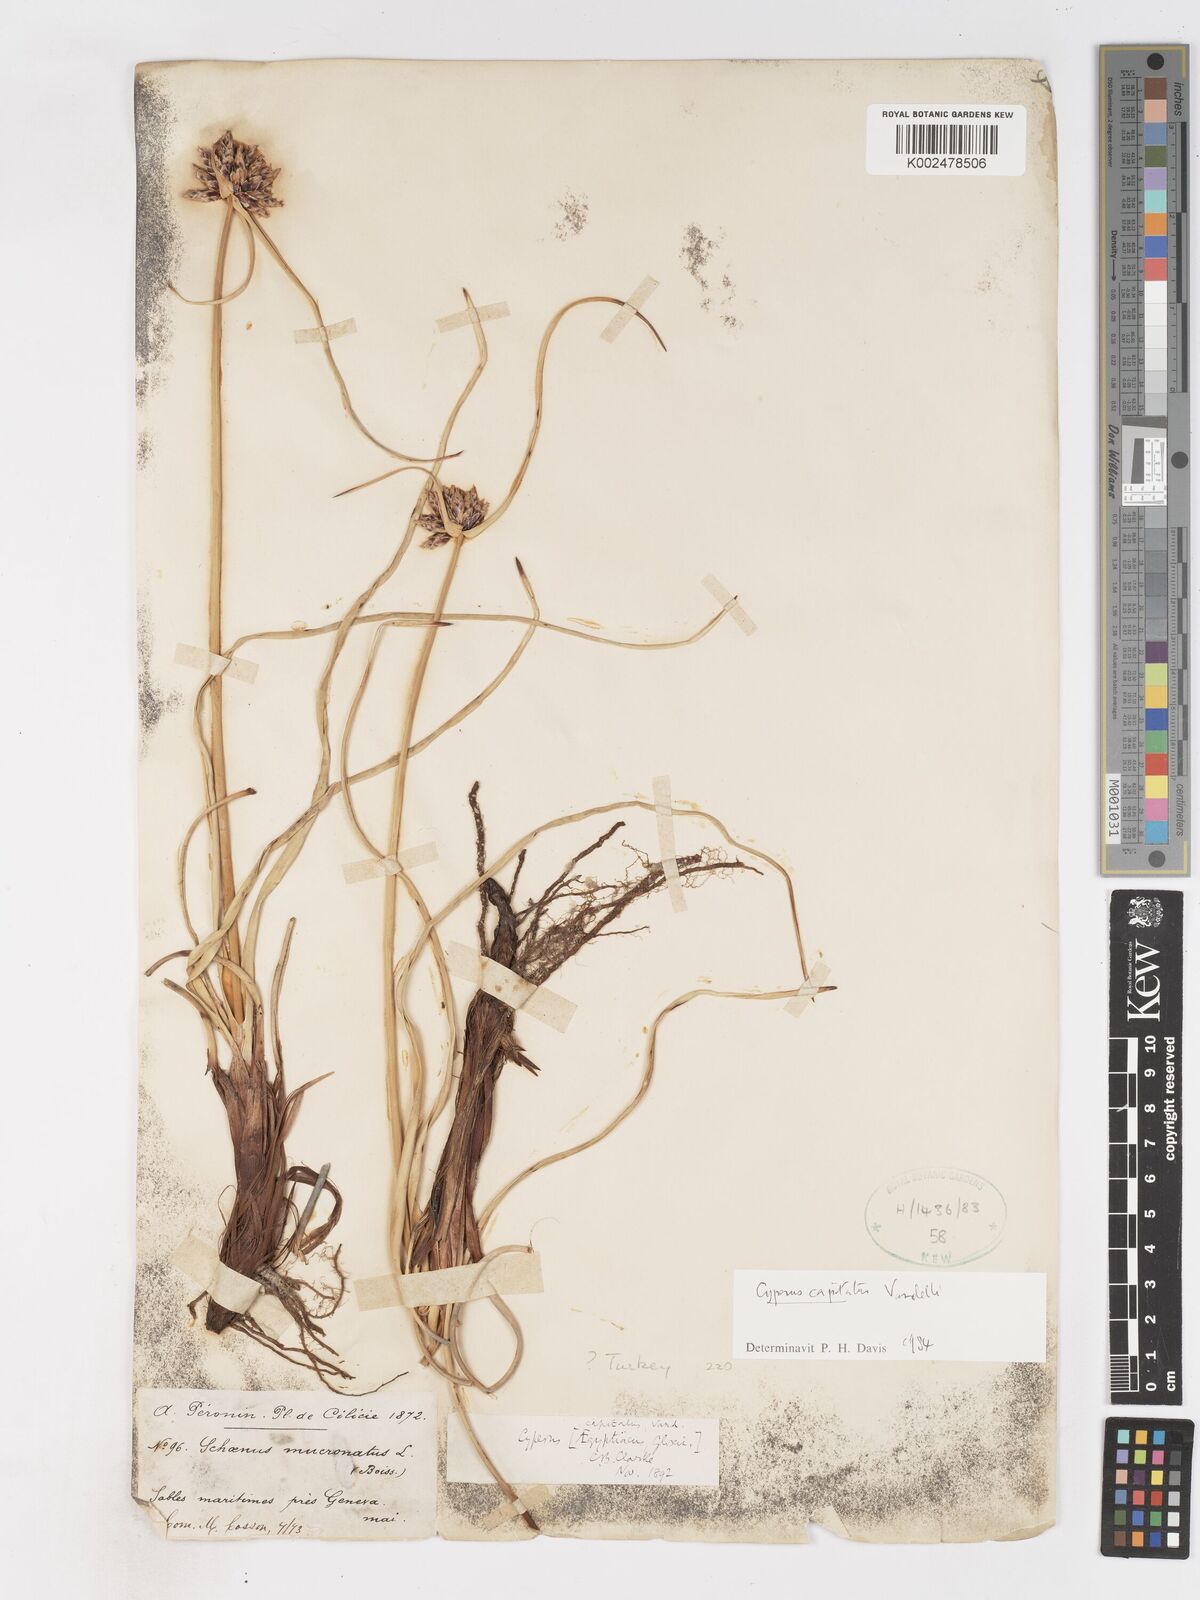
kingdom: Plantae
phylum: Tracheophyta
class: Liliopsida
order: Poales
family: Cyperaceae
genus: Cyperus
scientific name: Cyperus capitatus
